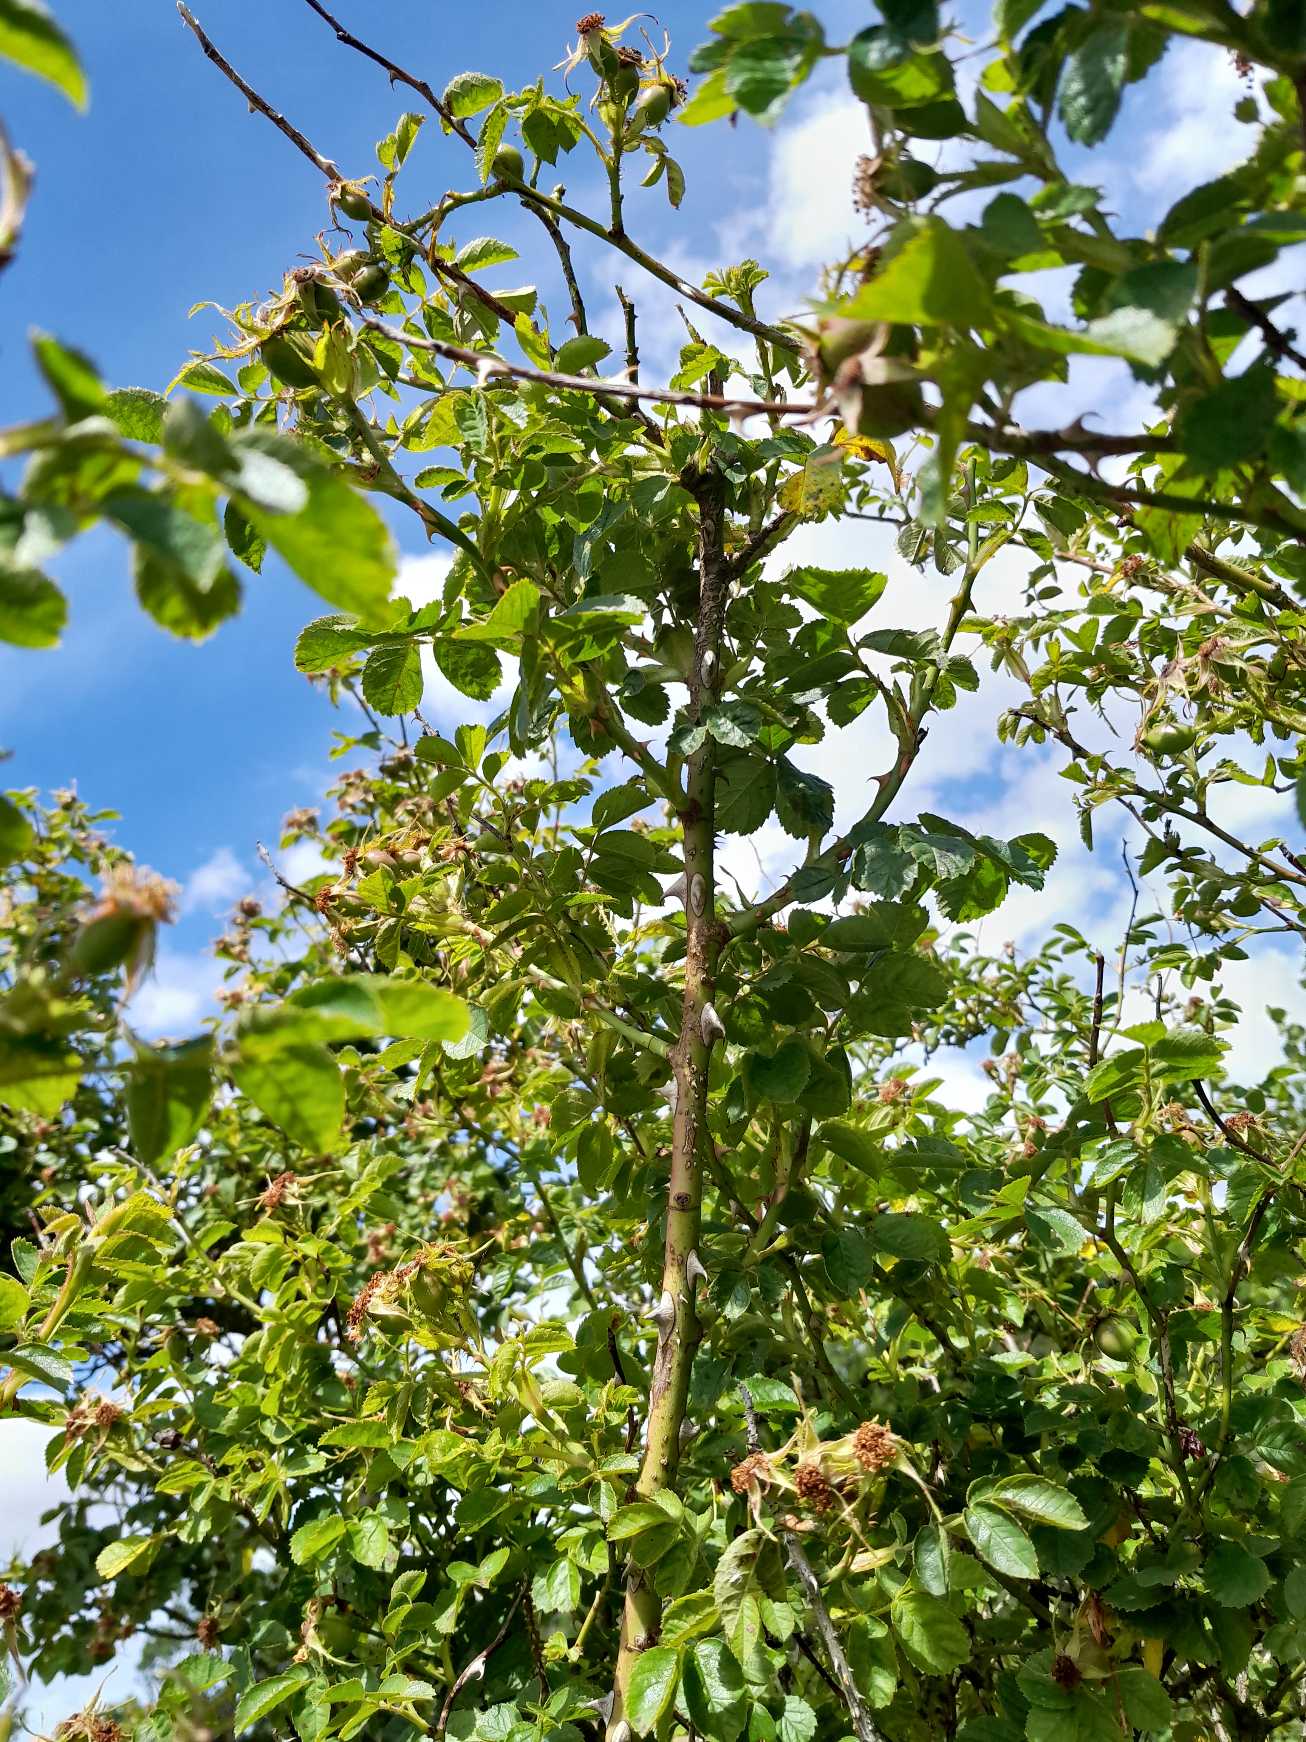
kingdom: Plantae
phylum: Tracheophyta
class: Magnoliopsida
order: Rosales
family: Rosaceae
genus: Rosa
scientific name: Rosa rubiginosa
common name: Æble-rose
